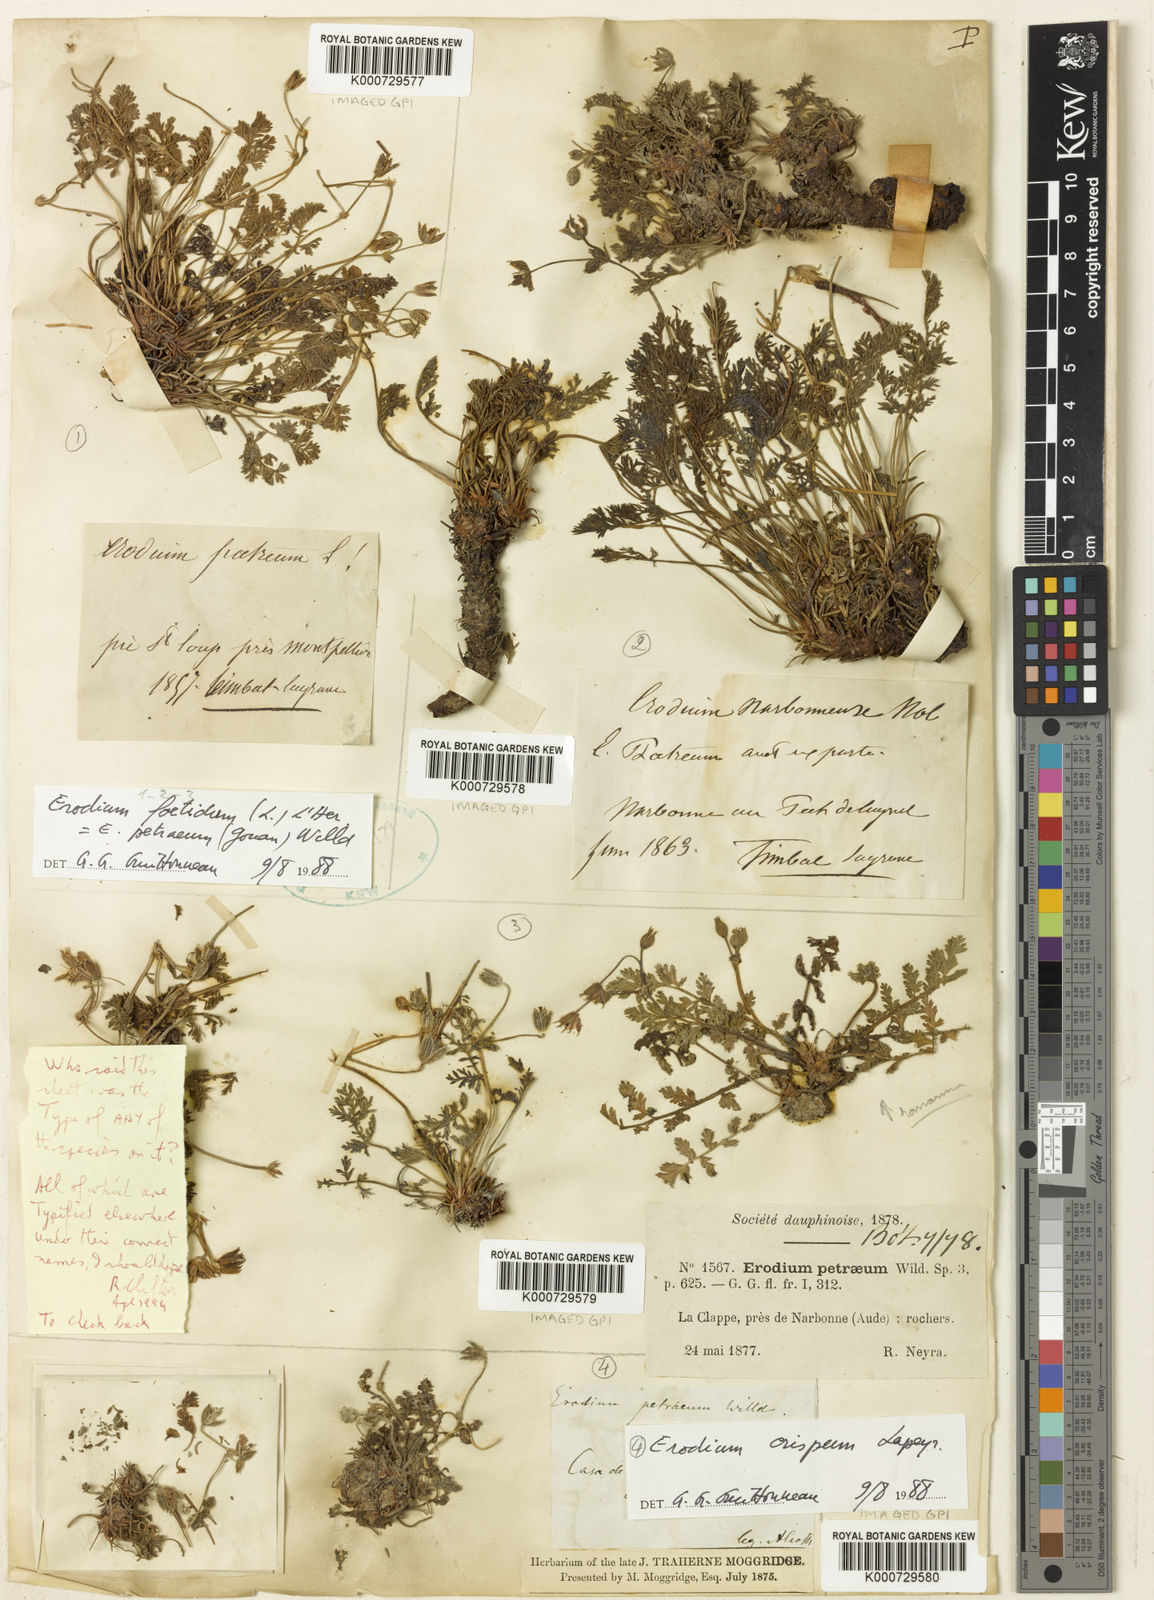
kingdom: Plantae
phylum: Tracheophyta
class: Magnoliopsida
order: Geraniales
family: Geraniaceae
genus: Erodium
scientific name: Erodium glandulosum
